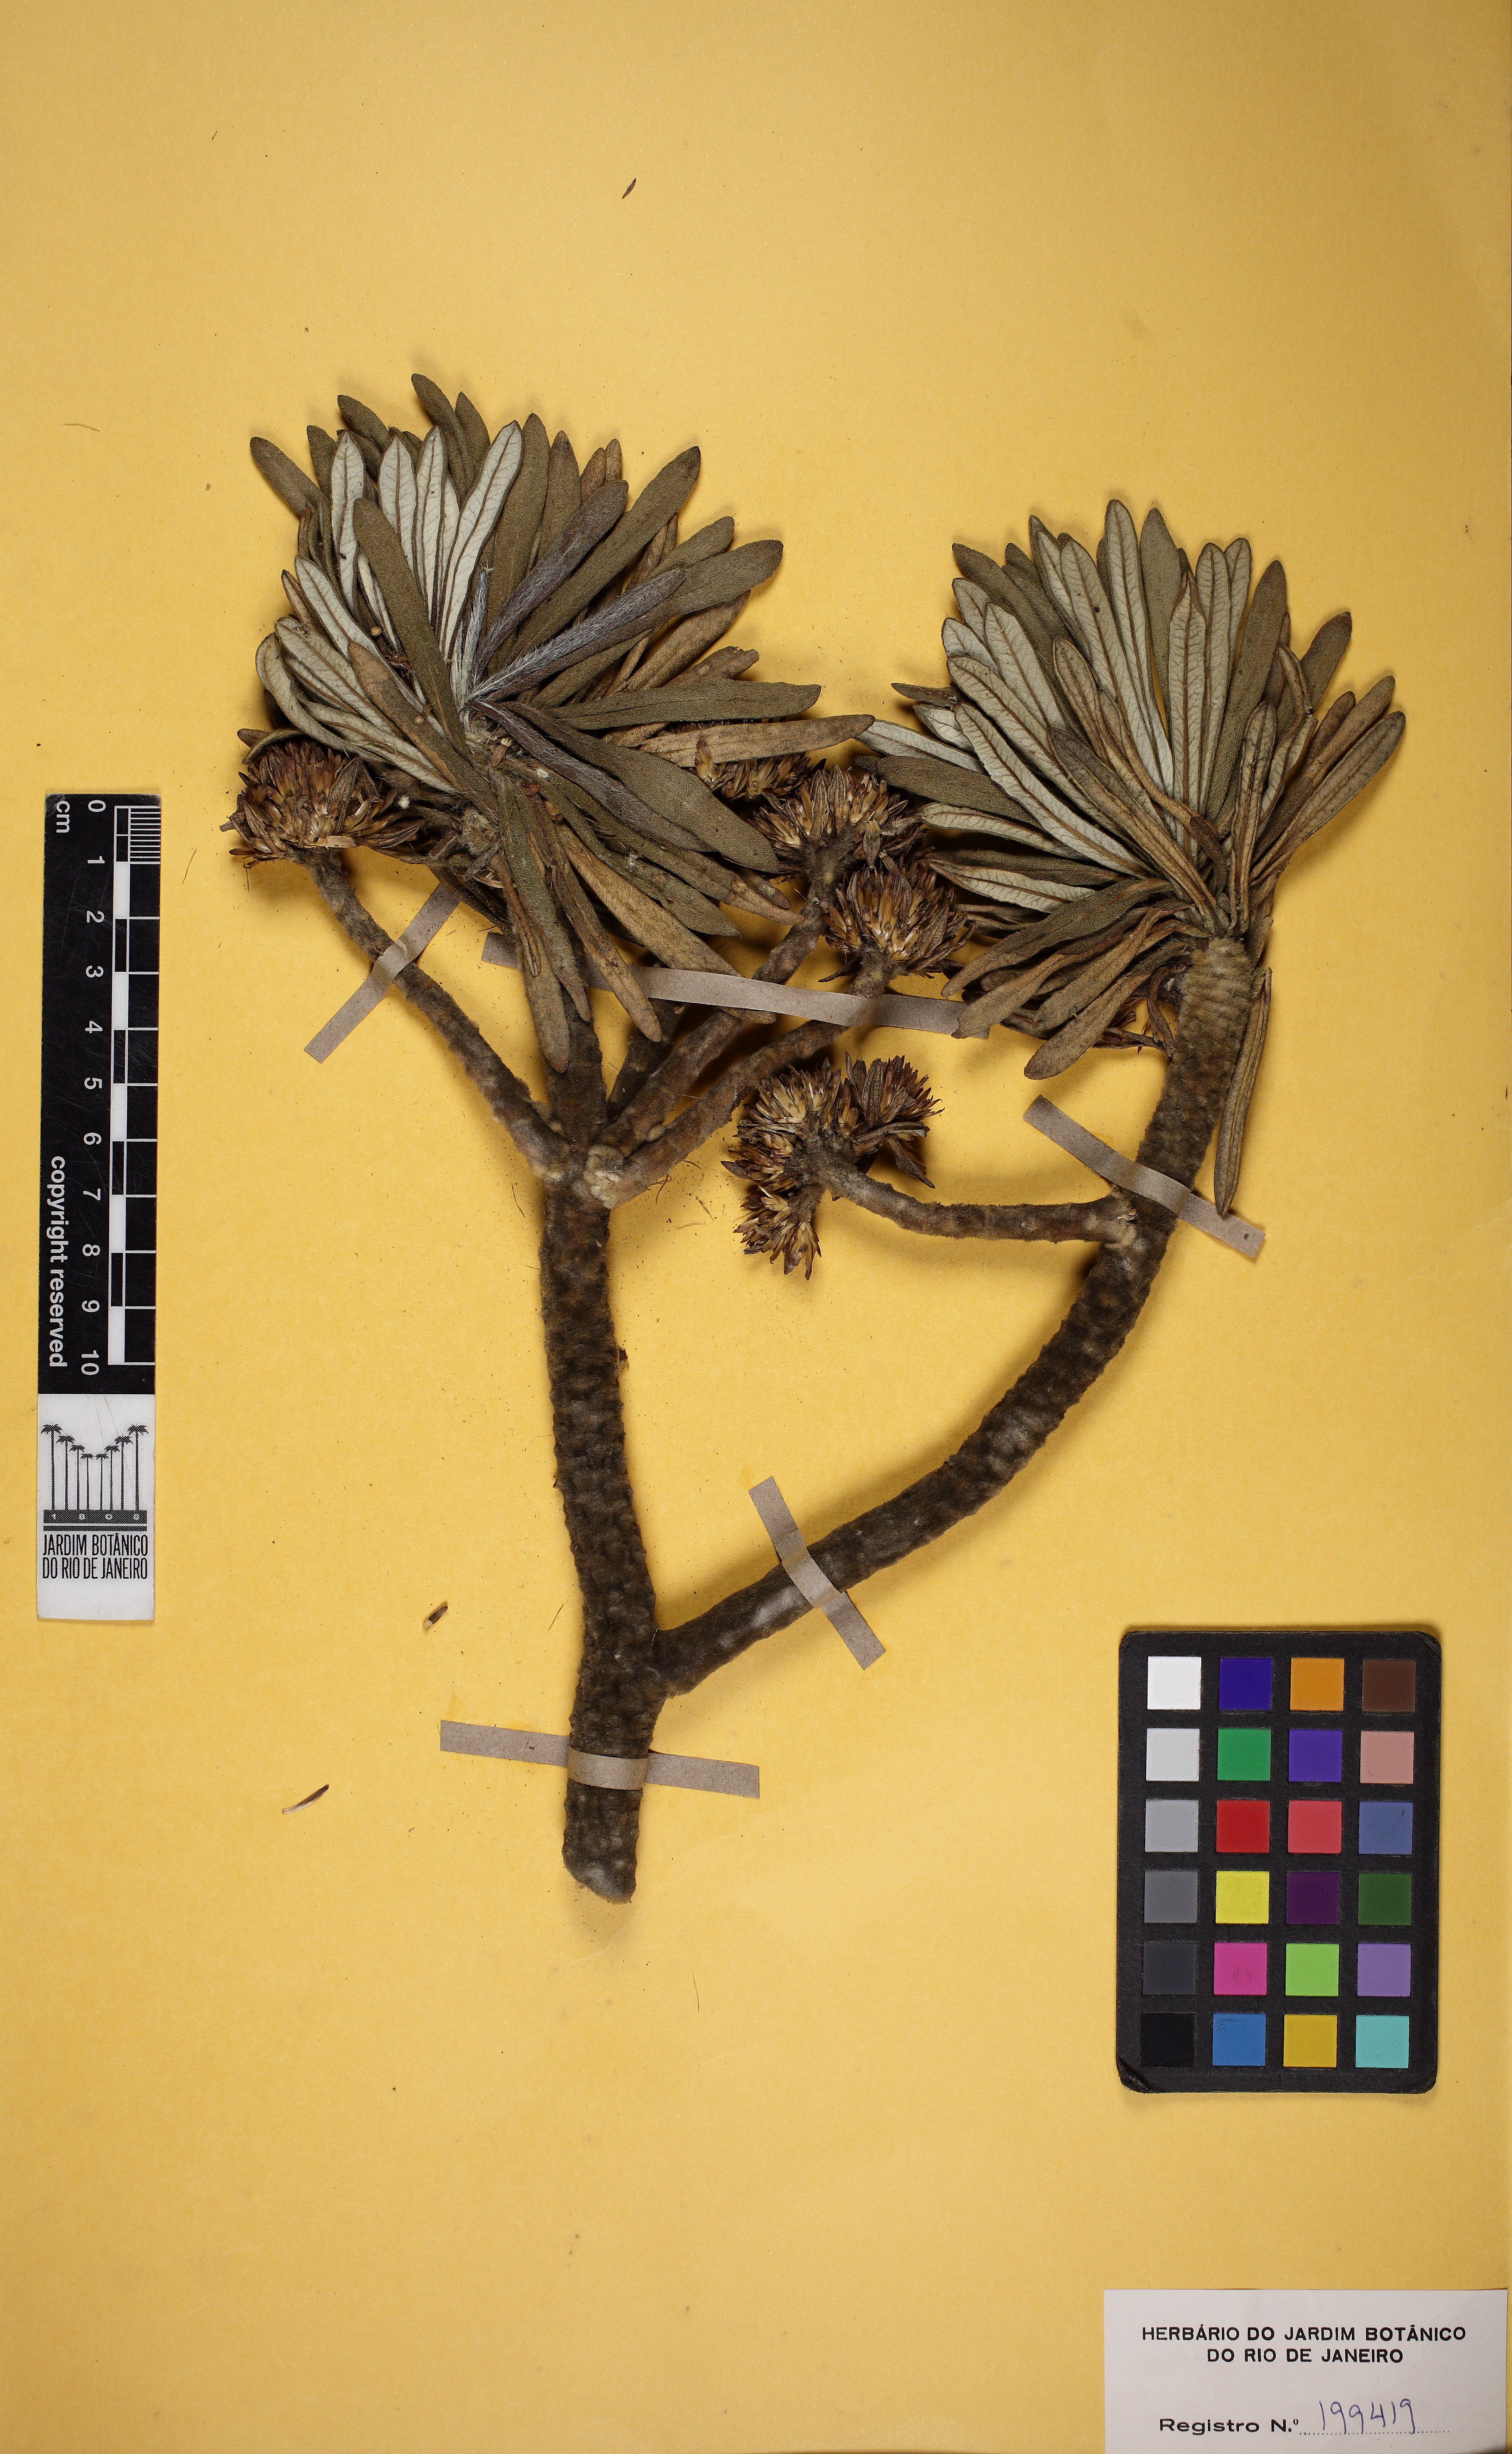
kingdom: Plantae
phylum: Tracheophyta
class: Magnoliopsida
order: Asterales
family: Asteraceae
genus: Lychnophora
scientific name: Lychnophora salicifolia
